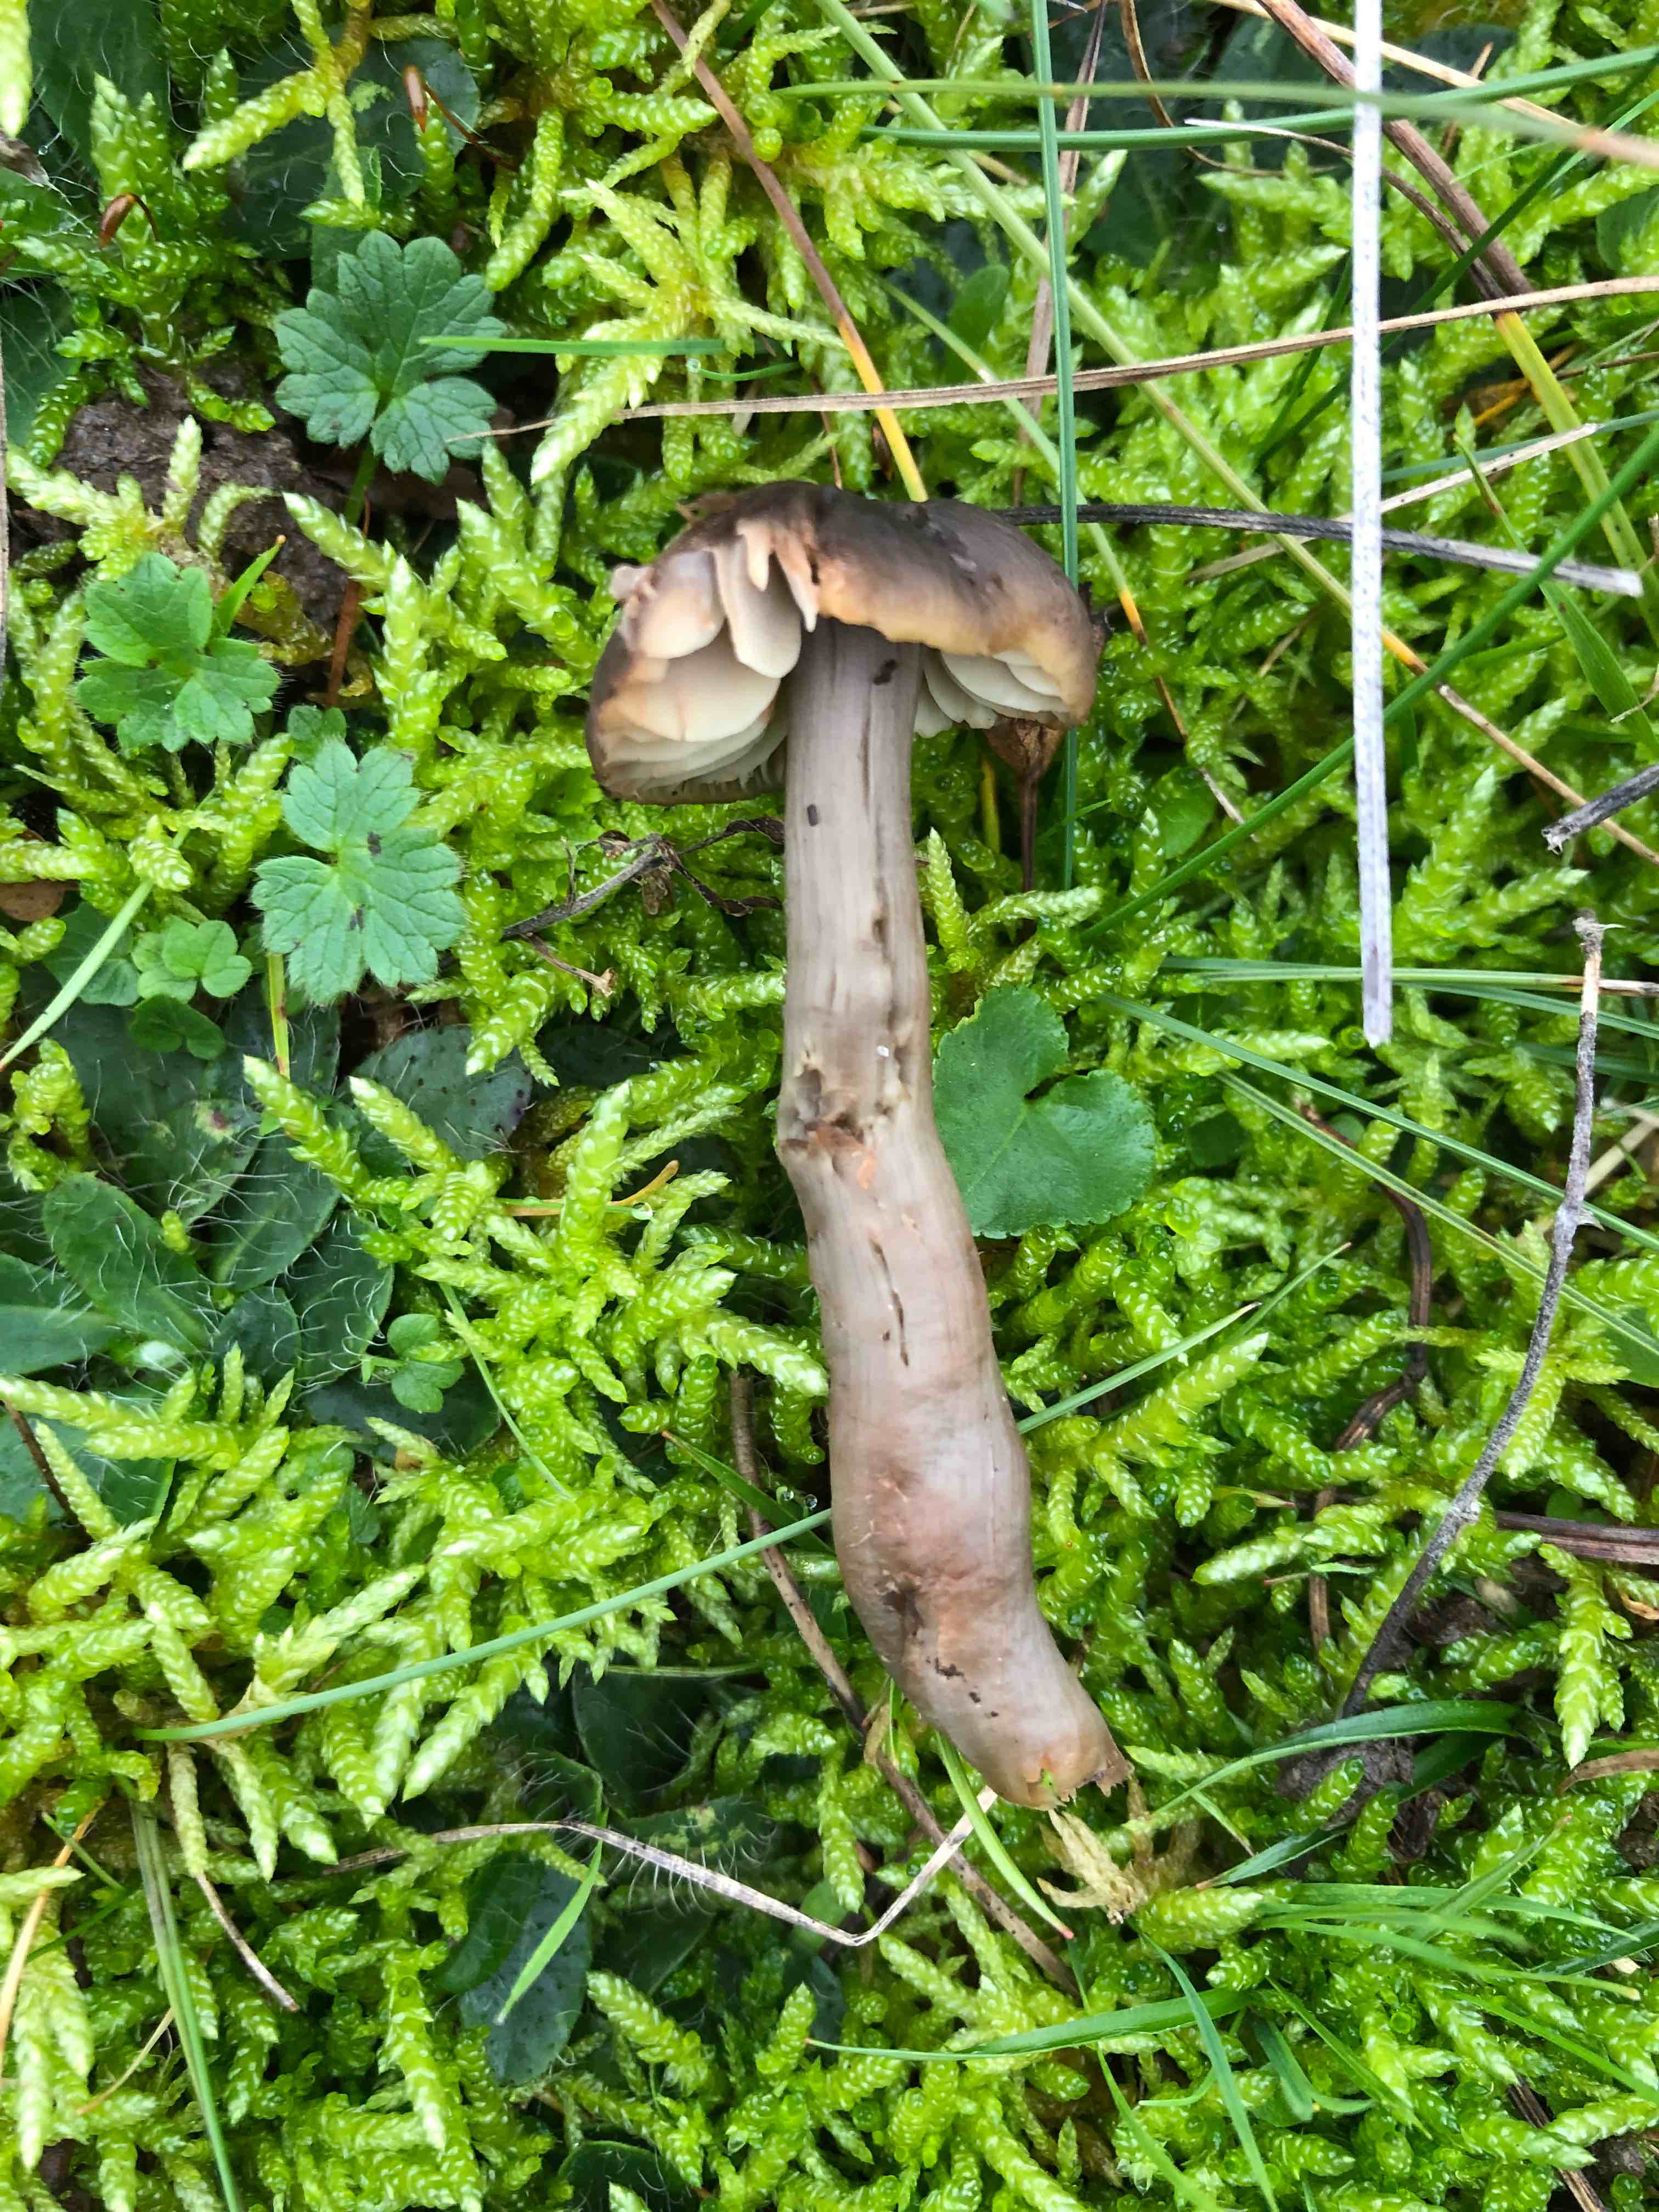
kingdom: Fungi
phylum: Basidiomycota
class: Agaricomycetes
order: Agaricales
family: Hygrophoraceae
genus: Neohygrocybe
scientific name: Neohygrocybe ovina
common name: rødmende vokshat
